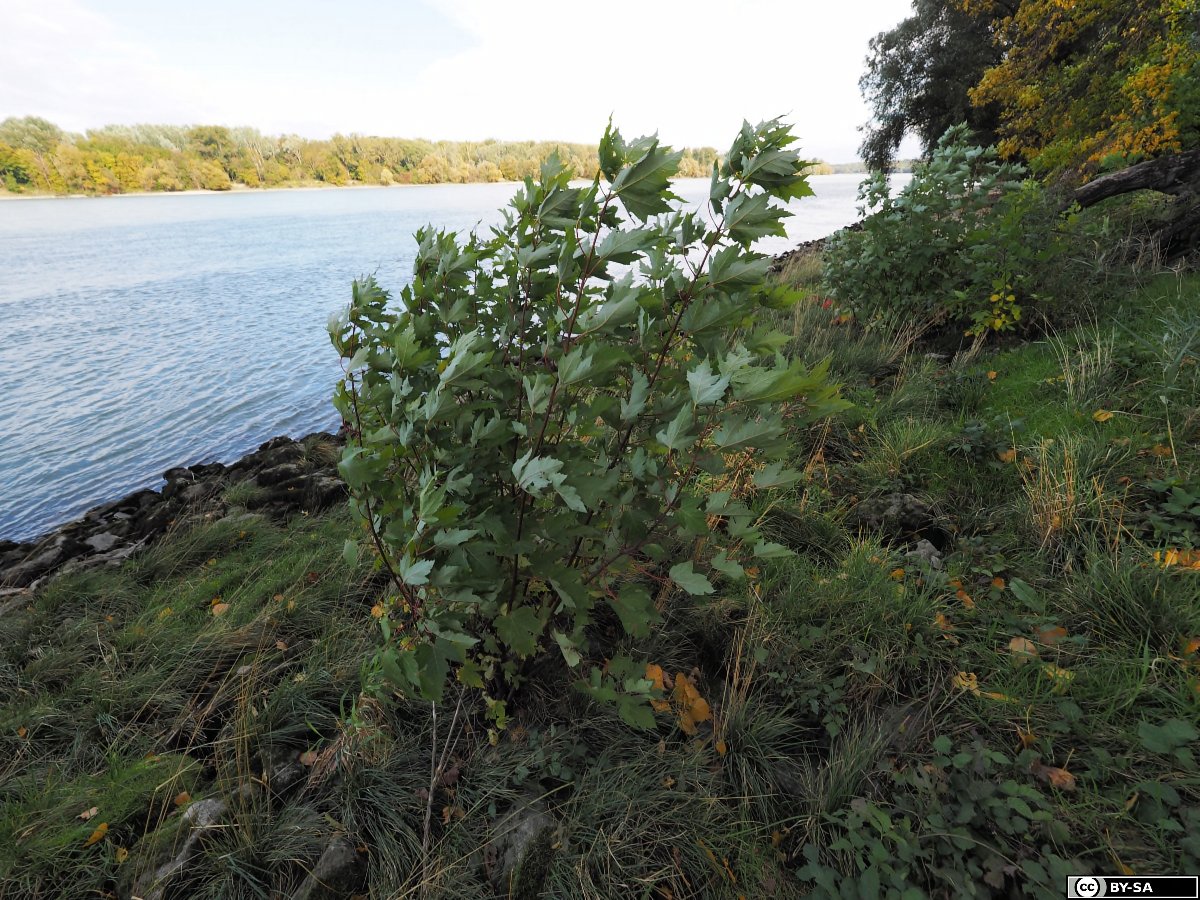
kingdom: Plantae
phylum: Tracheophyta
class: Magnoliopsida
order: Sapindales
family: Sapindaceae
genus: Acer
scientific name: Acer saccharinum
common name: Silver maple
